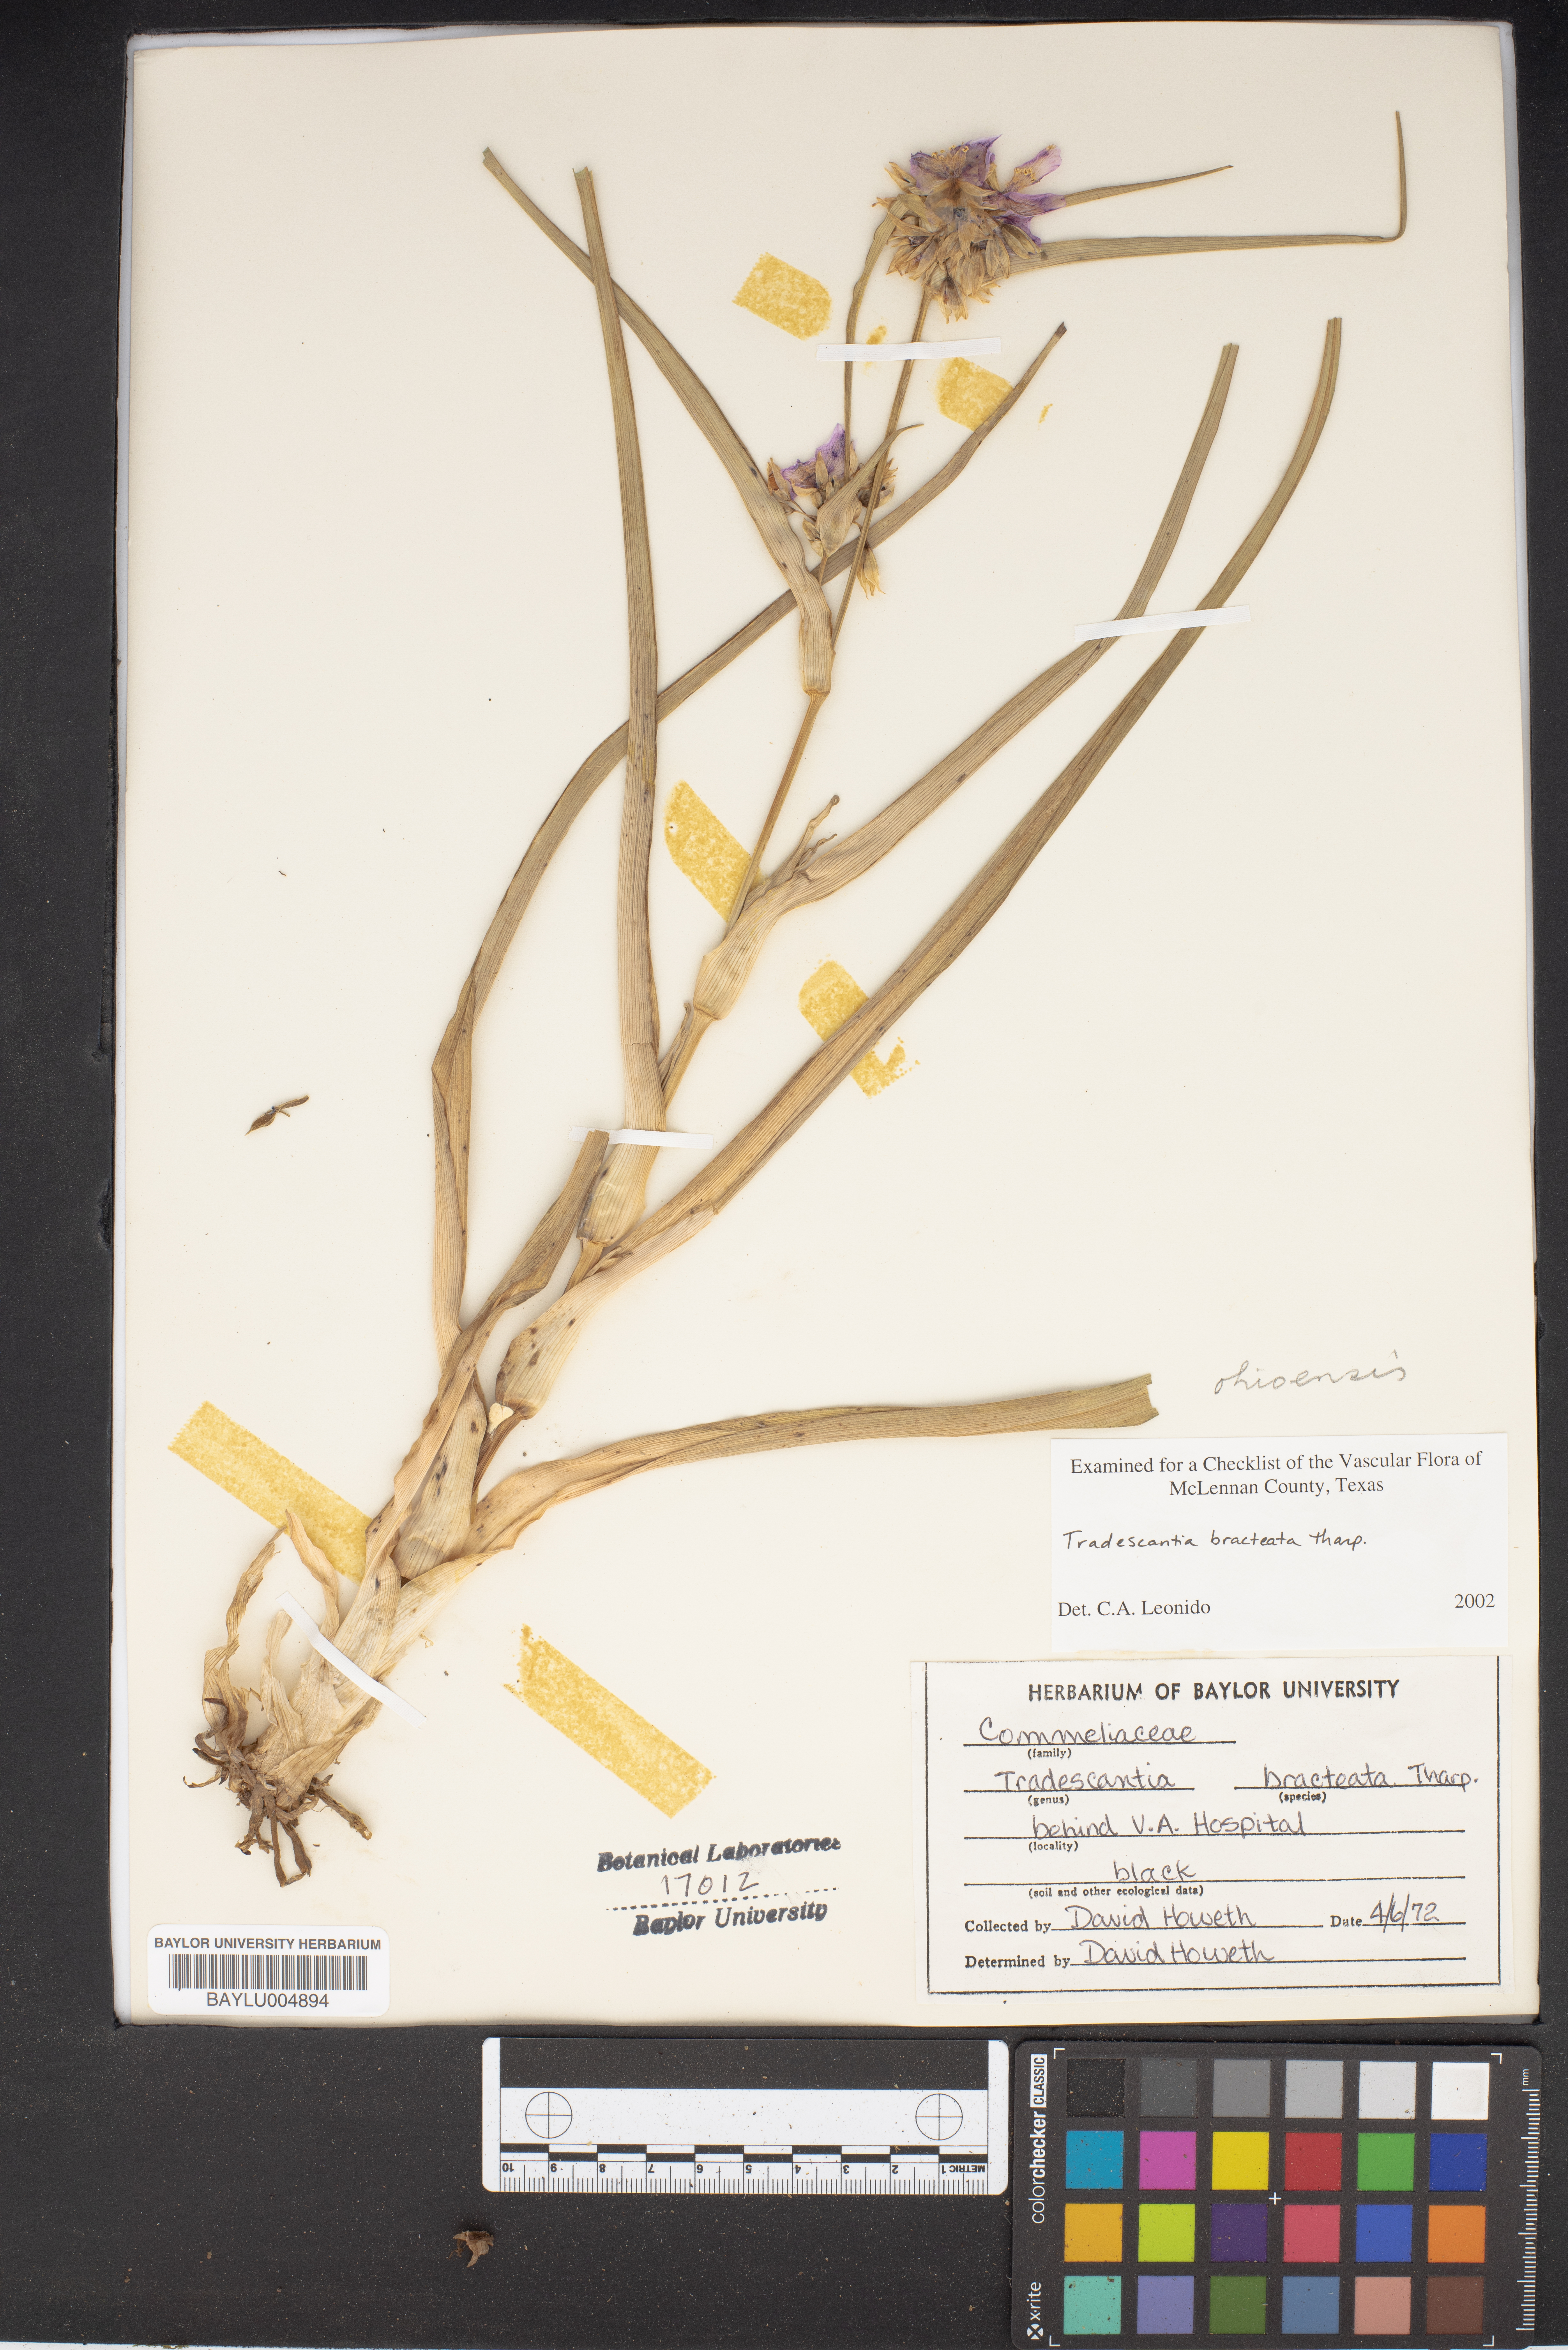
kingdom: Plantae
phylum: Tracheophyta
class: Liliopsida
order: Commelinales
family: Commelinaceae
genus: Tradescantia
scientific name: Tradescantia bracteata
